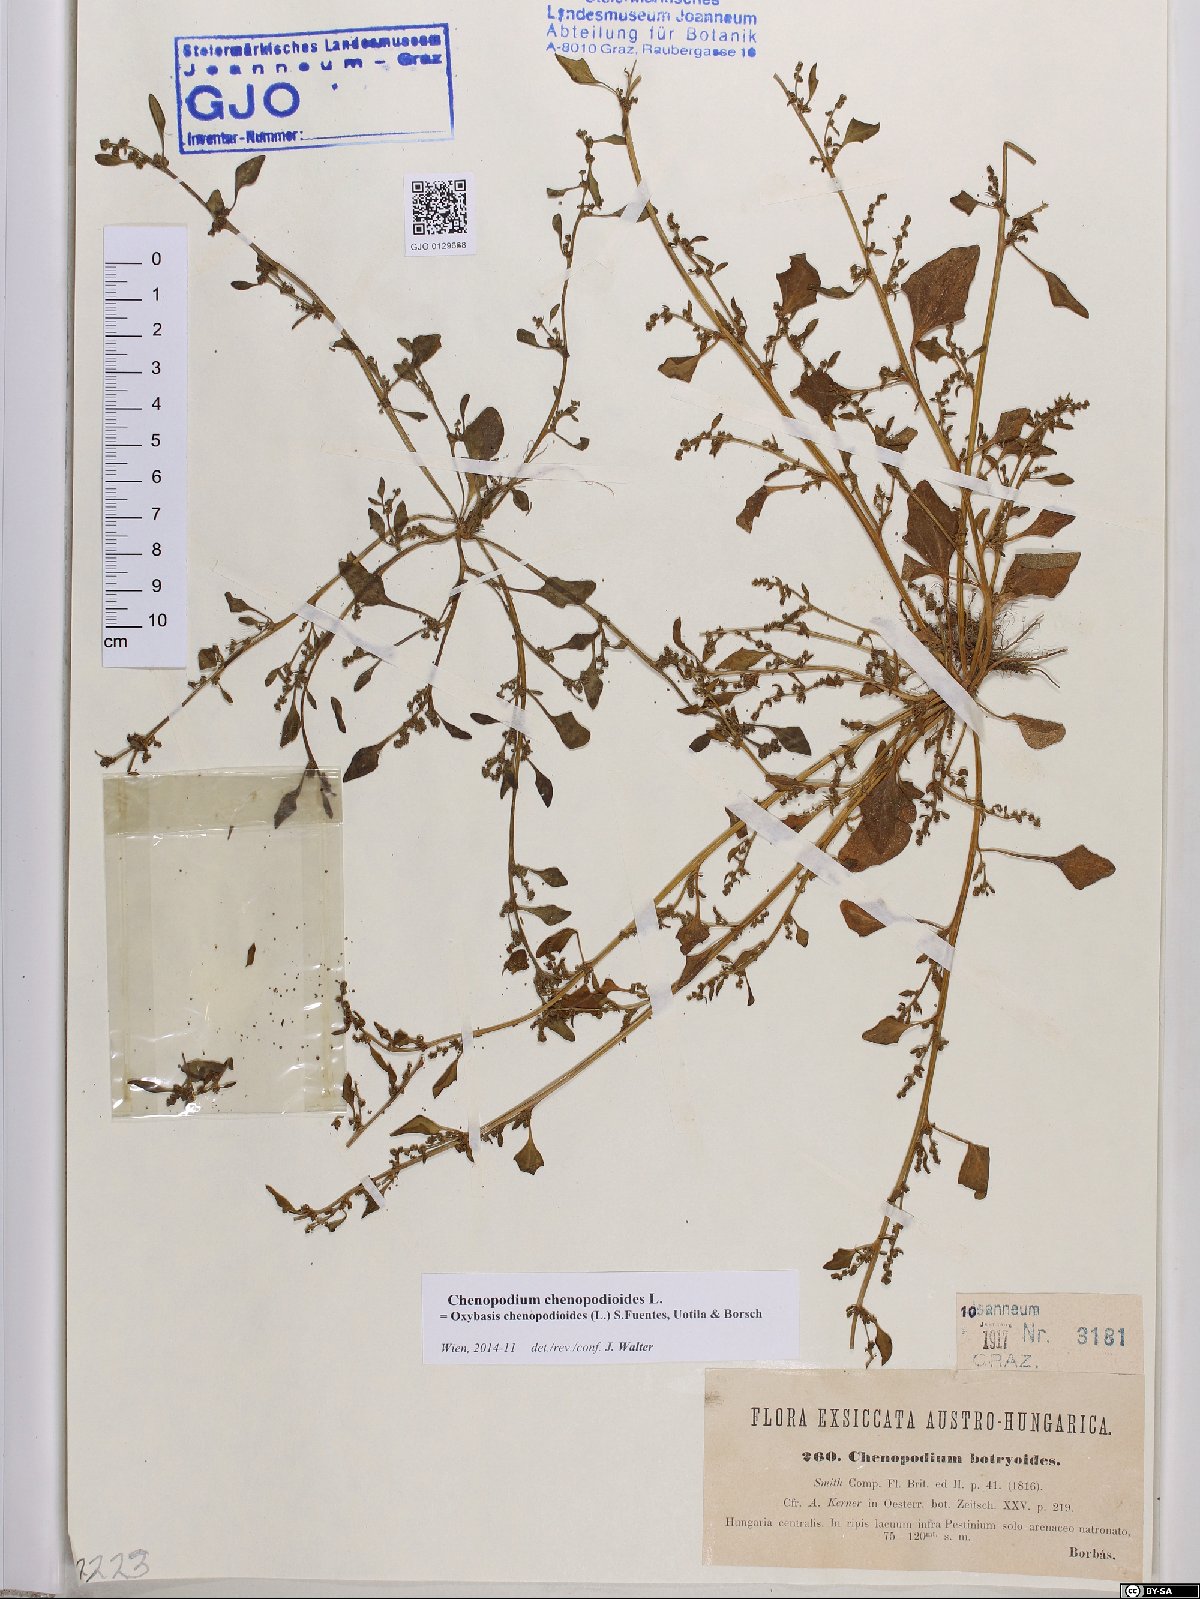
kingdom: Plantae
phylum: Tracheophyta
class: Magnoliopsida
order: Caryophyllales
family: Amaranthaceae
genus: Oxybasis
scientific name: Oxybasis chenopodioides
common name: Saltmarsh goosefoot
